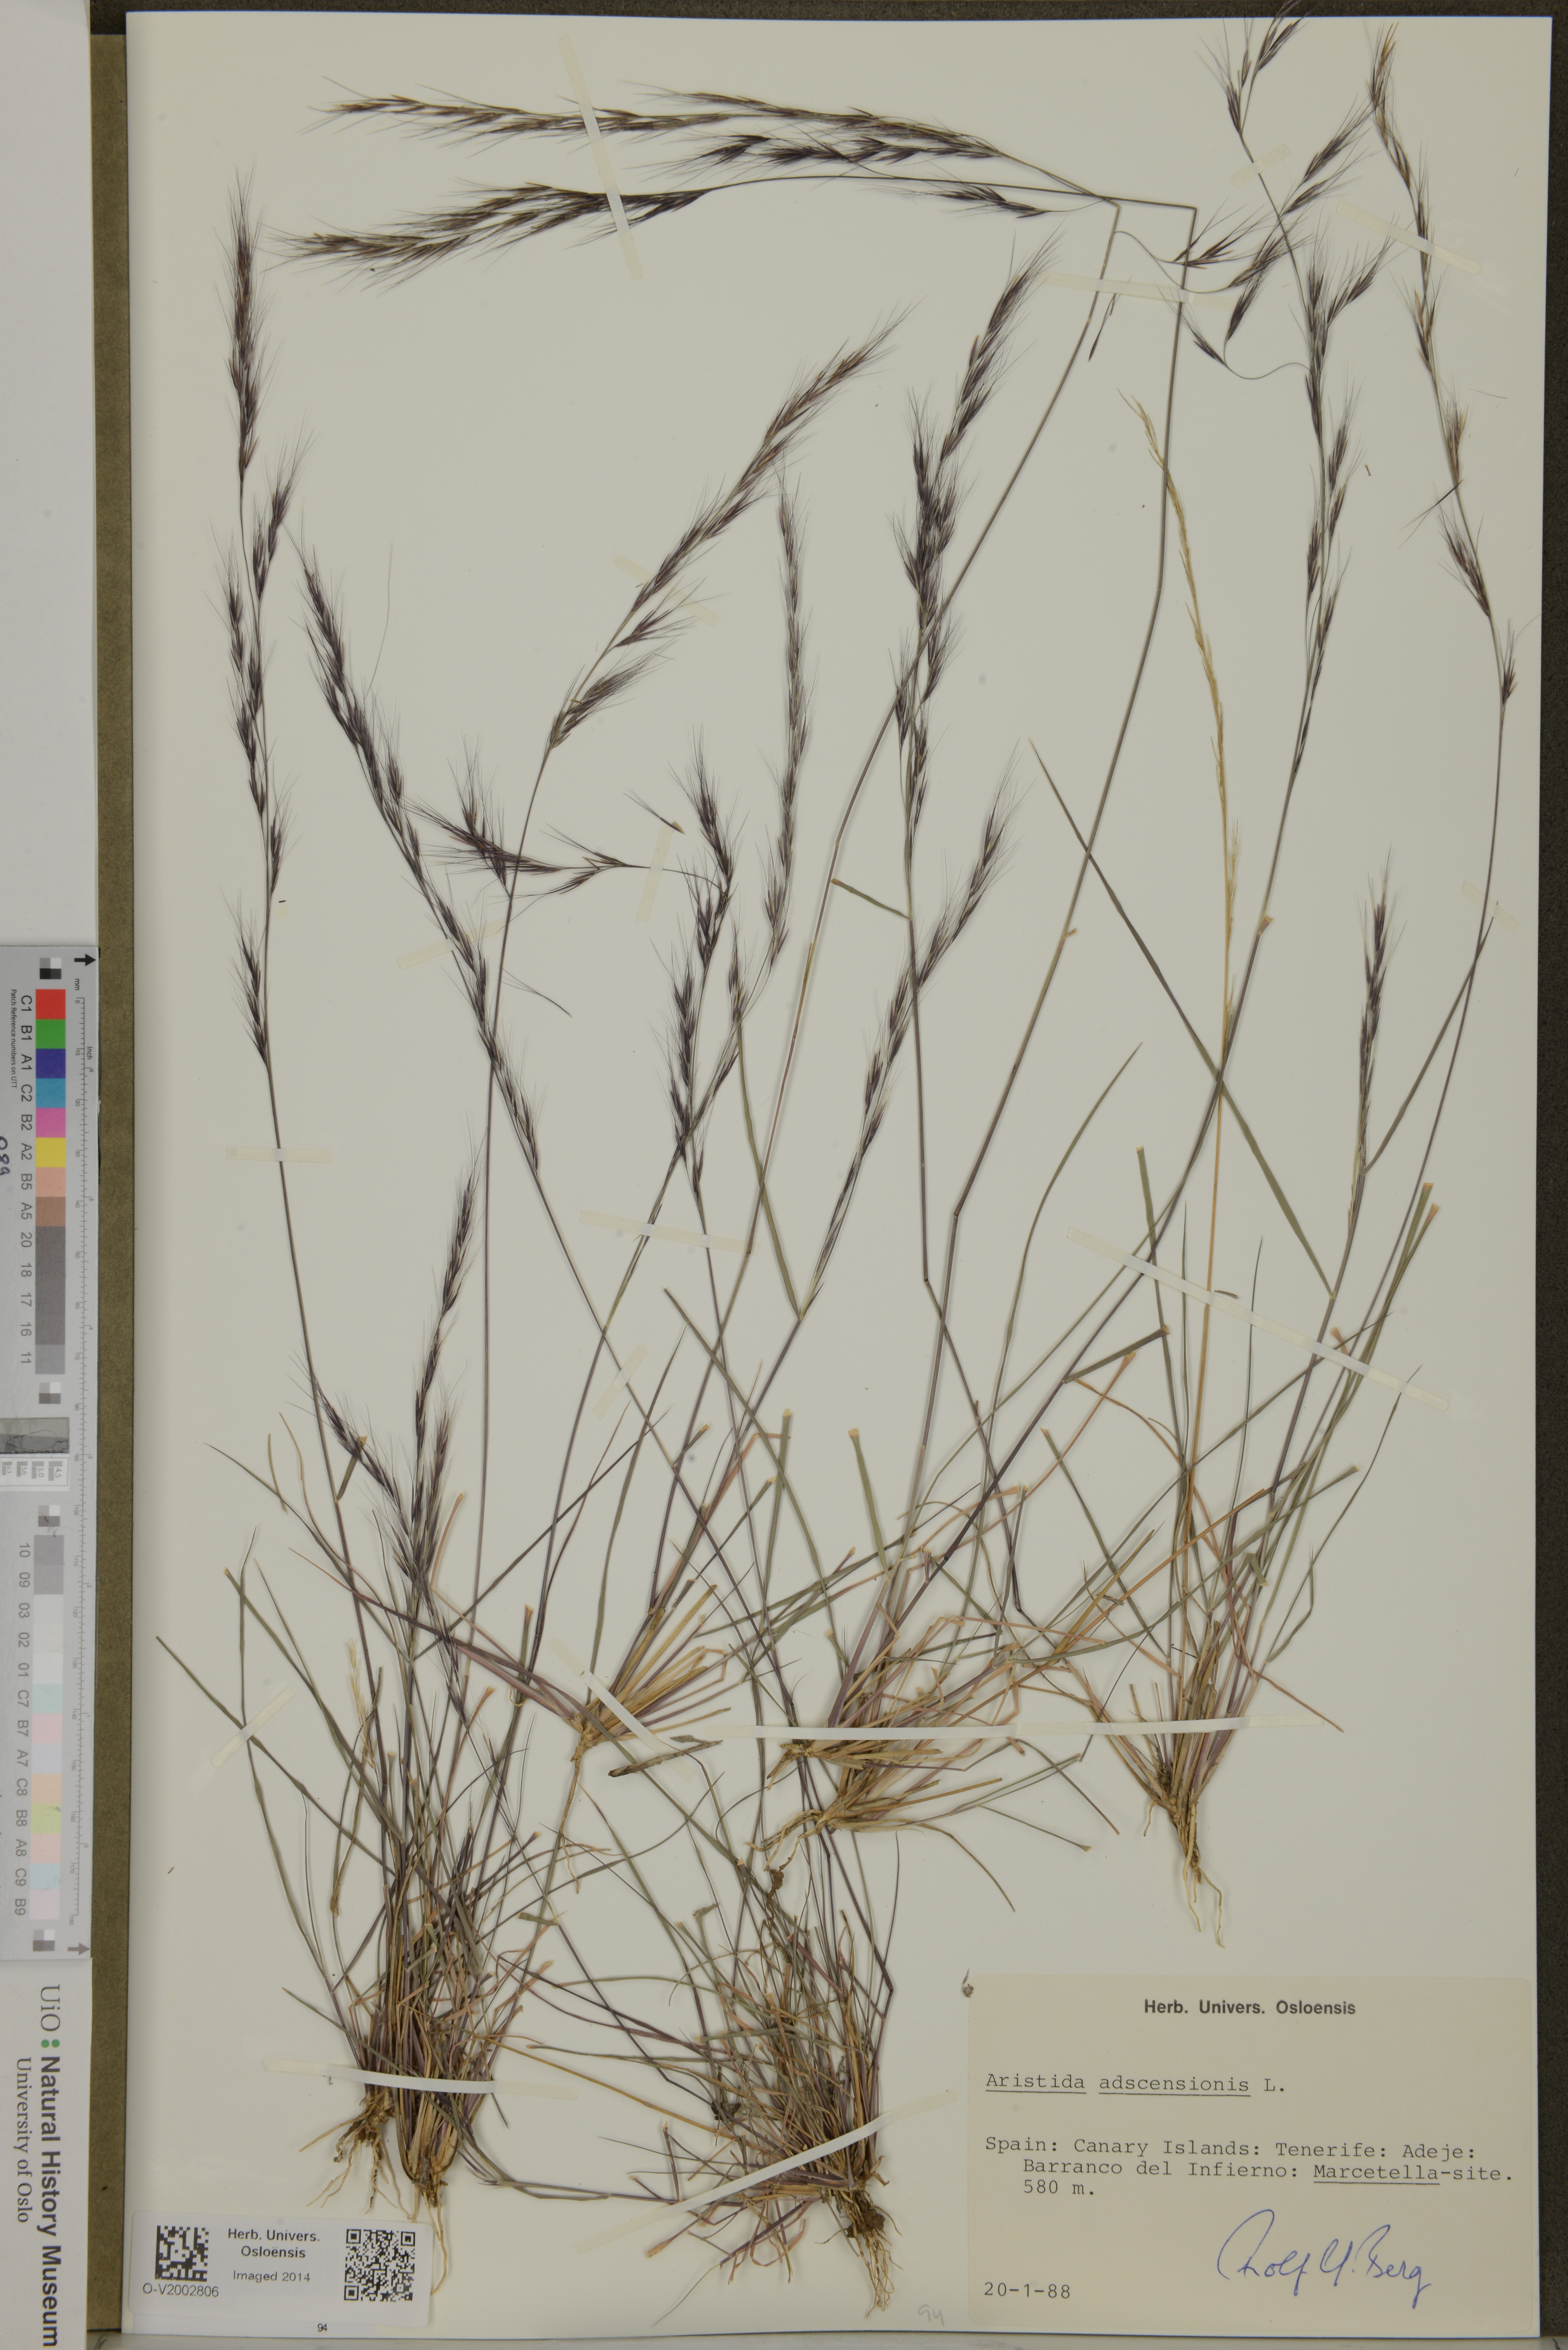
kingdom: Plantae
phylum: Tracheophyta
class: Liliopsida
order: Poales
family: Poaceae
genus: Aristida
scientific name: Aristida adscensionis
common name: Sixweeks threeawn
